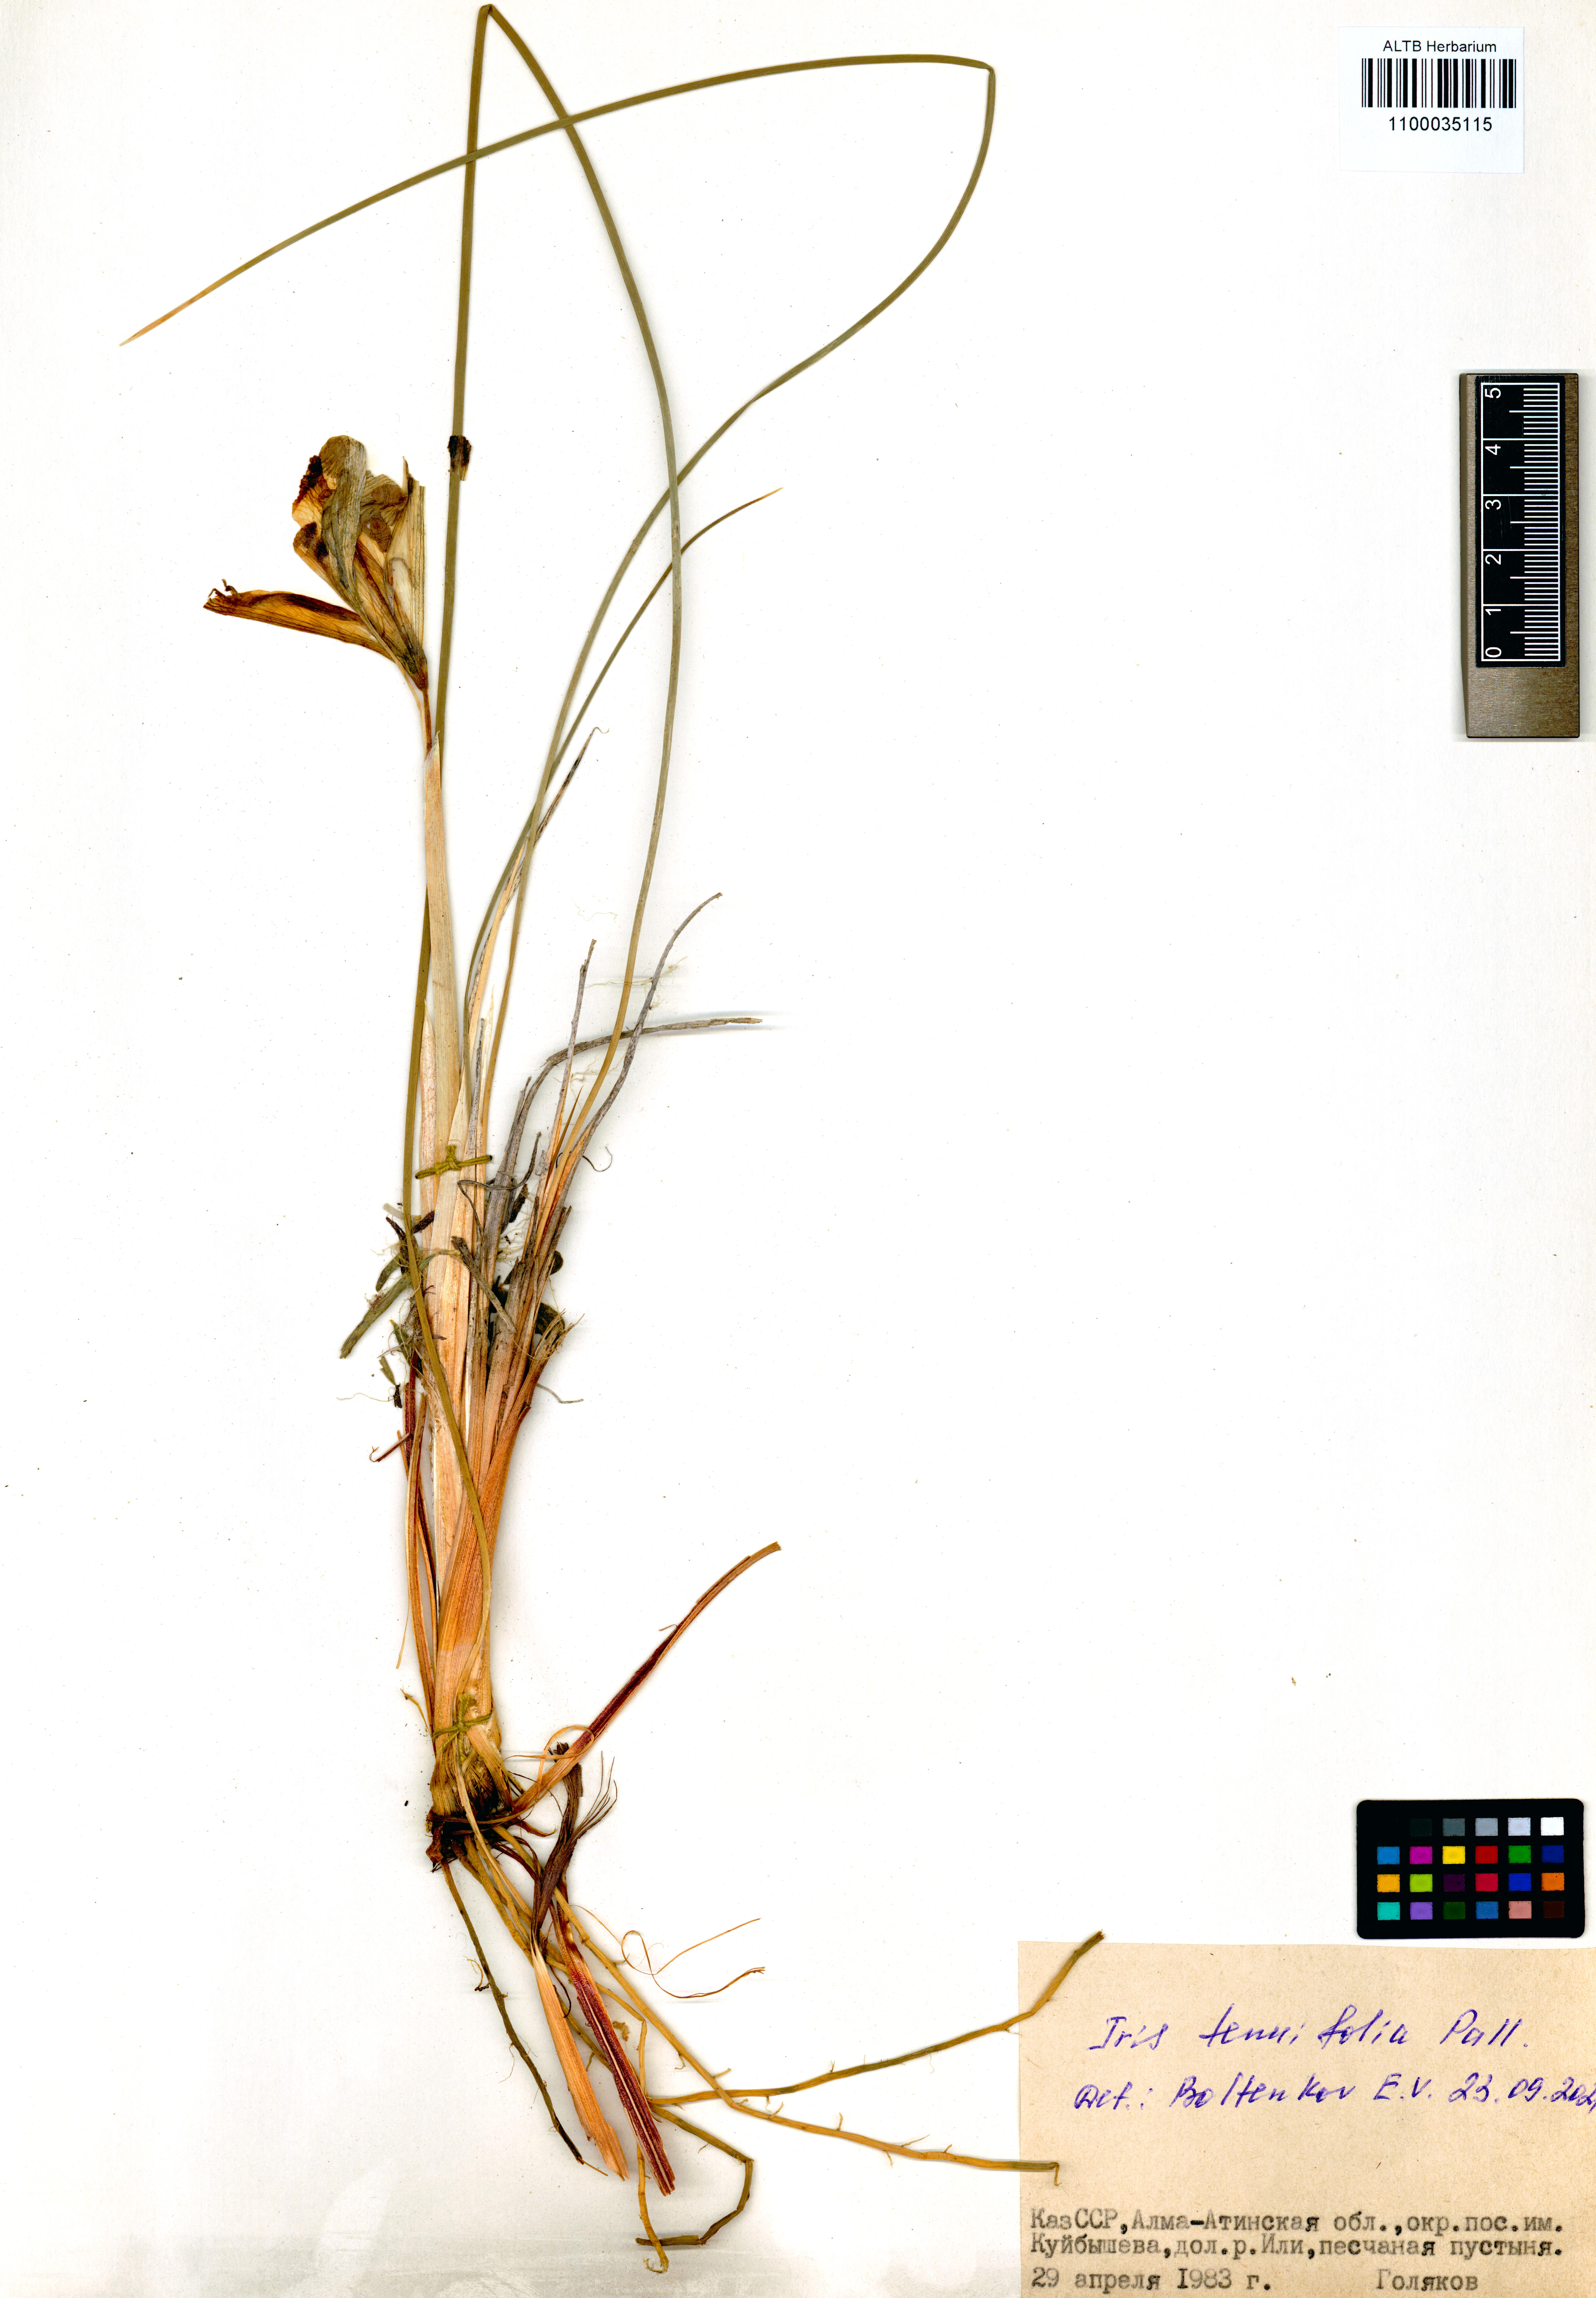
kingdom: Plantae
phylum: Tracheophyta
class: Liliopsida
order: Asparagales
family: Iridaceae
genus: Iris
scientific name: Iris tenuifolia
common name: Slender-leaf iris
